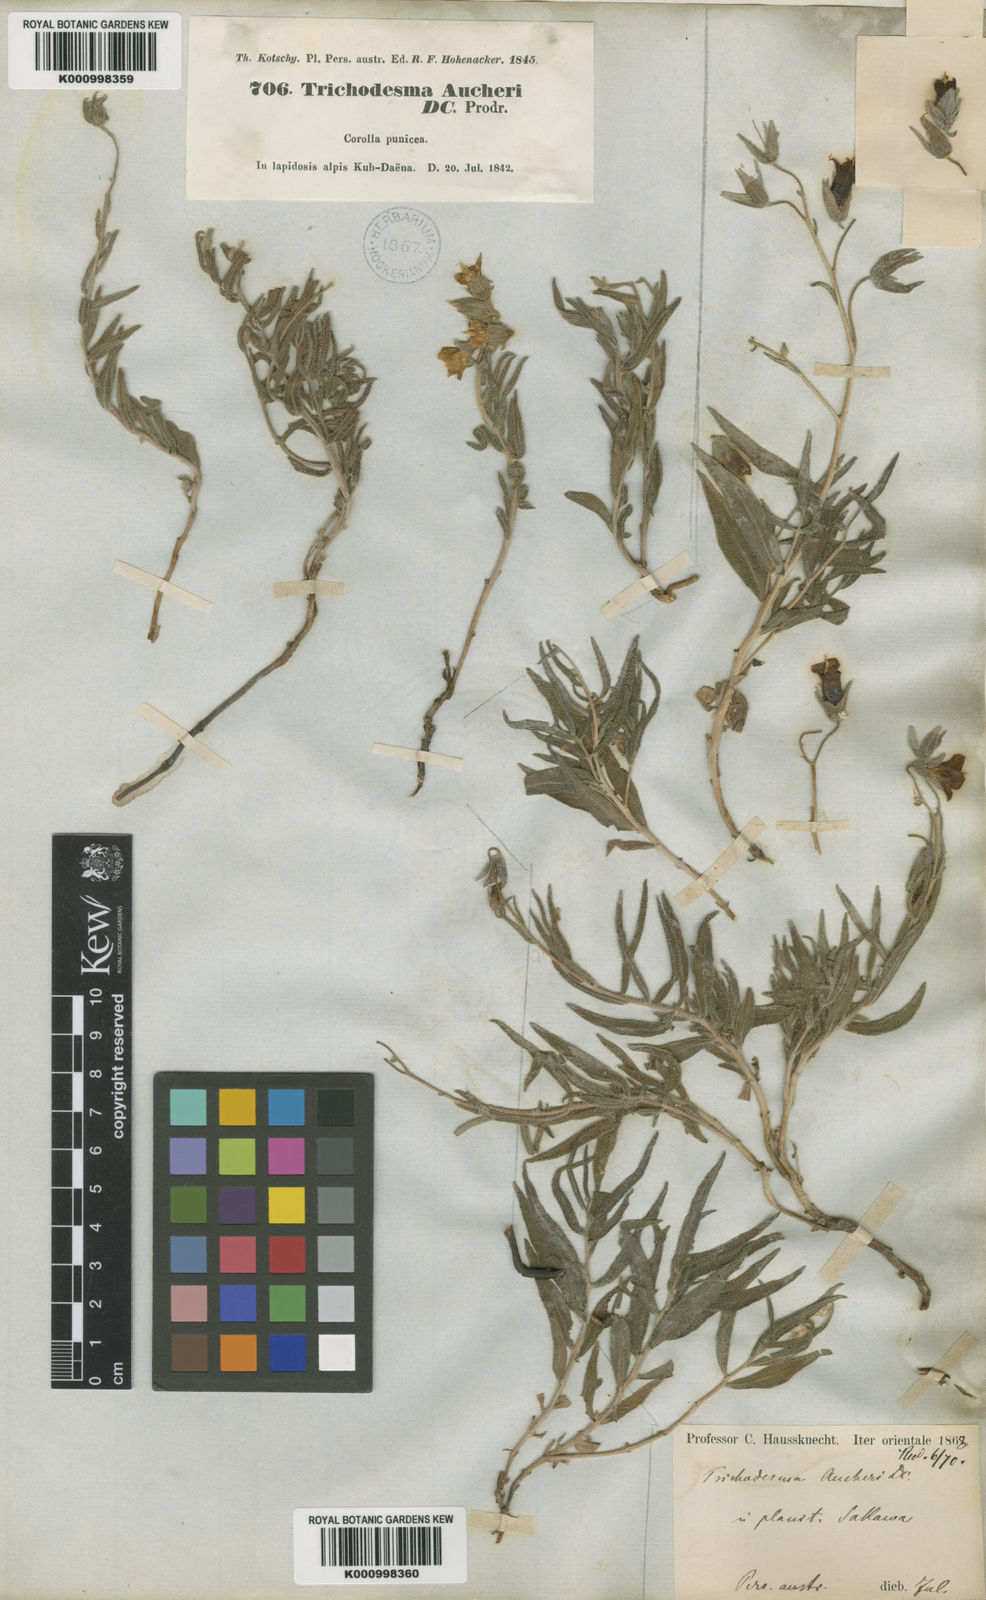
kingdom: Plantae
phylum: Tracheophyta
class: Magnoliopsida
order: Boraginales
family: Boraginaceae
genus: Trichodesma
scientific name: Trichodesma aucheri
